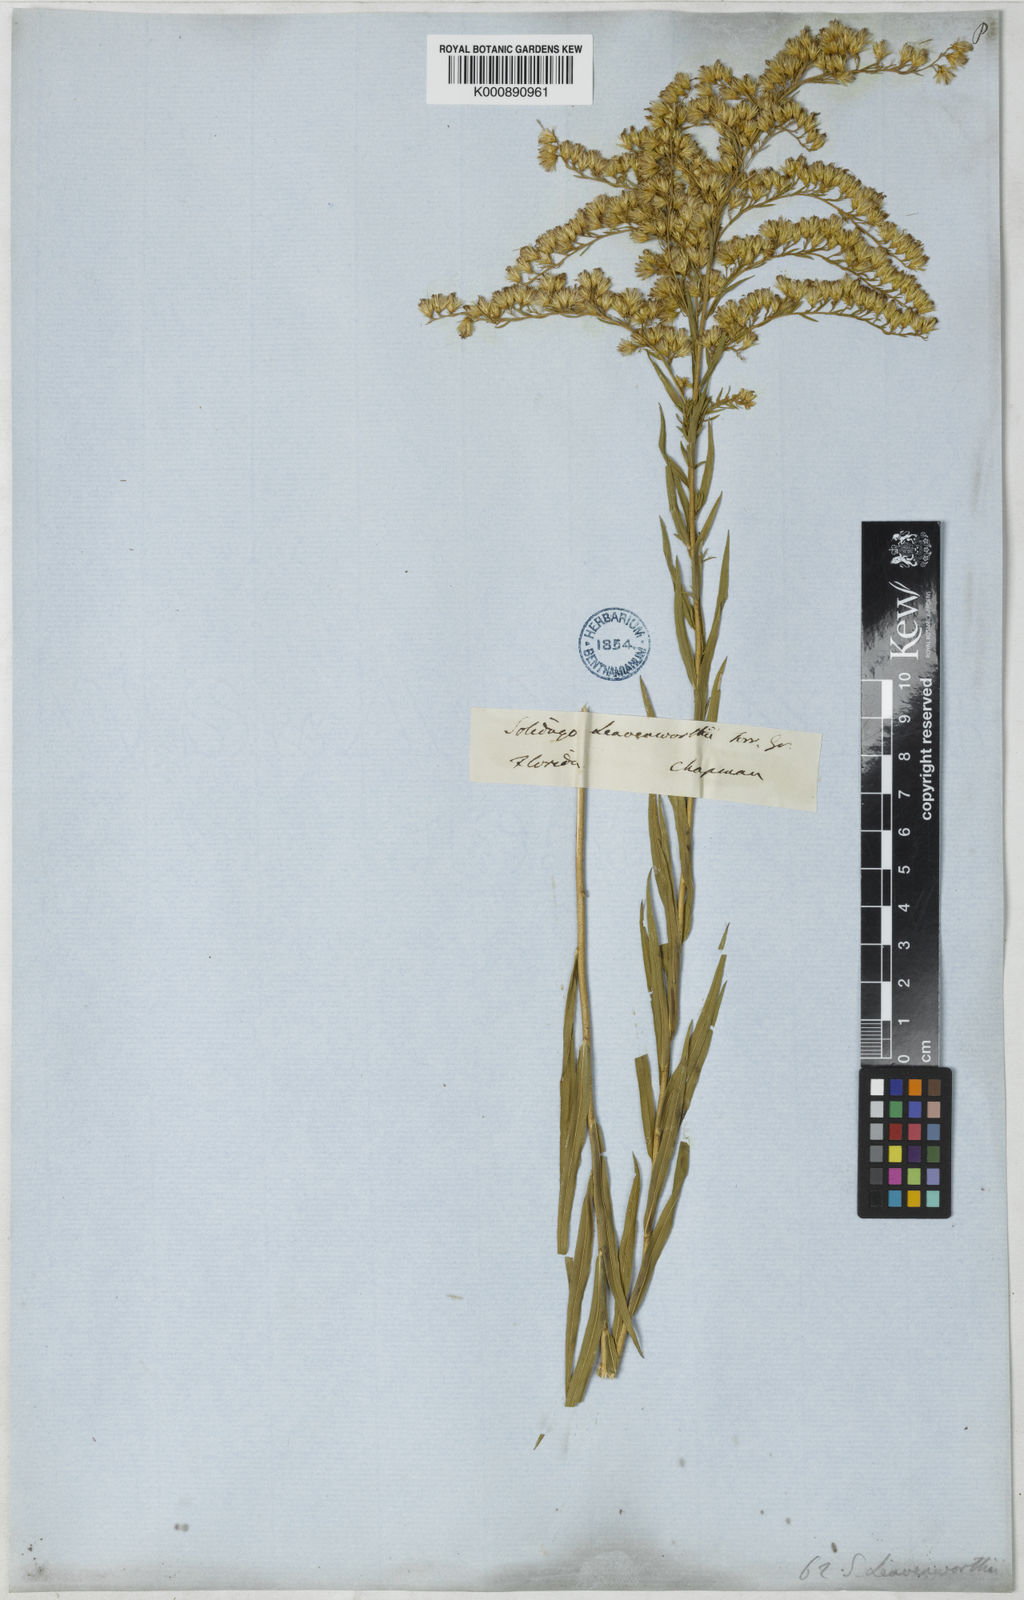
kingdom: Plantae
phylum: Tracheophyta
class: Magnoliopsida
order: Asterales
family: Asteraceae
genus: Solidago
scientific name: Solidago leavenworthii
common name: Leavenworth's goldenrod
